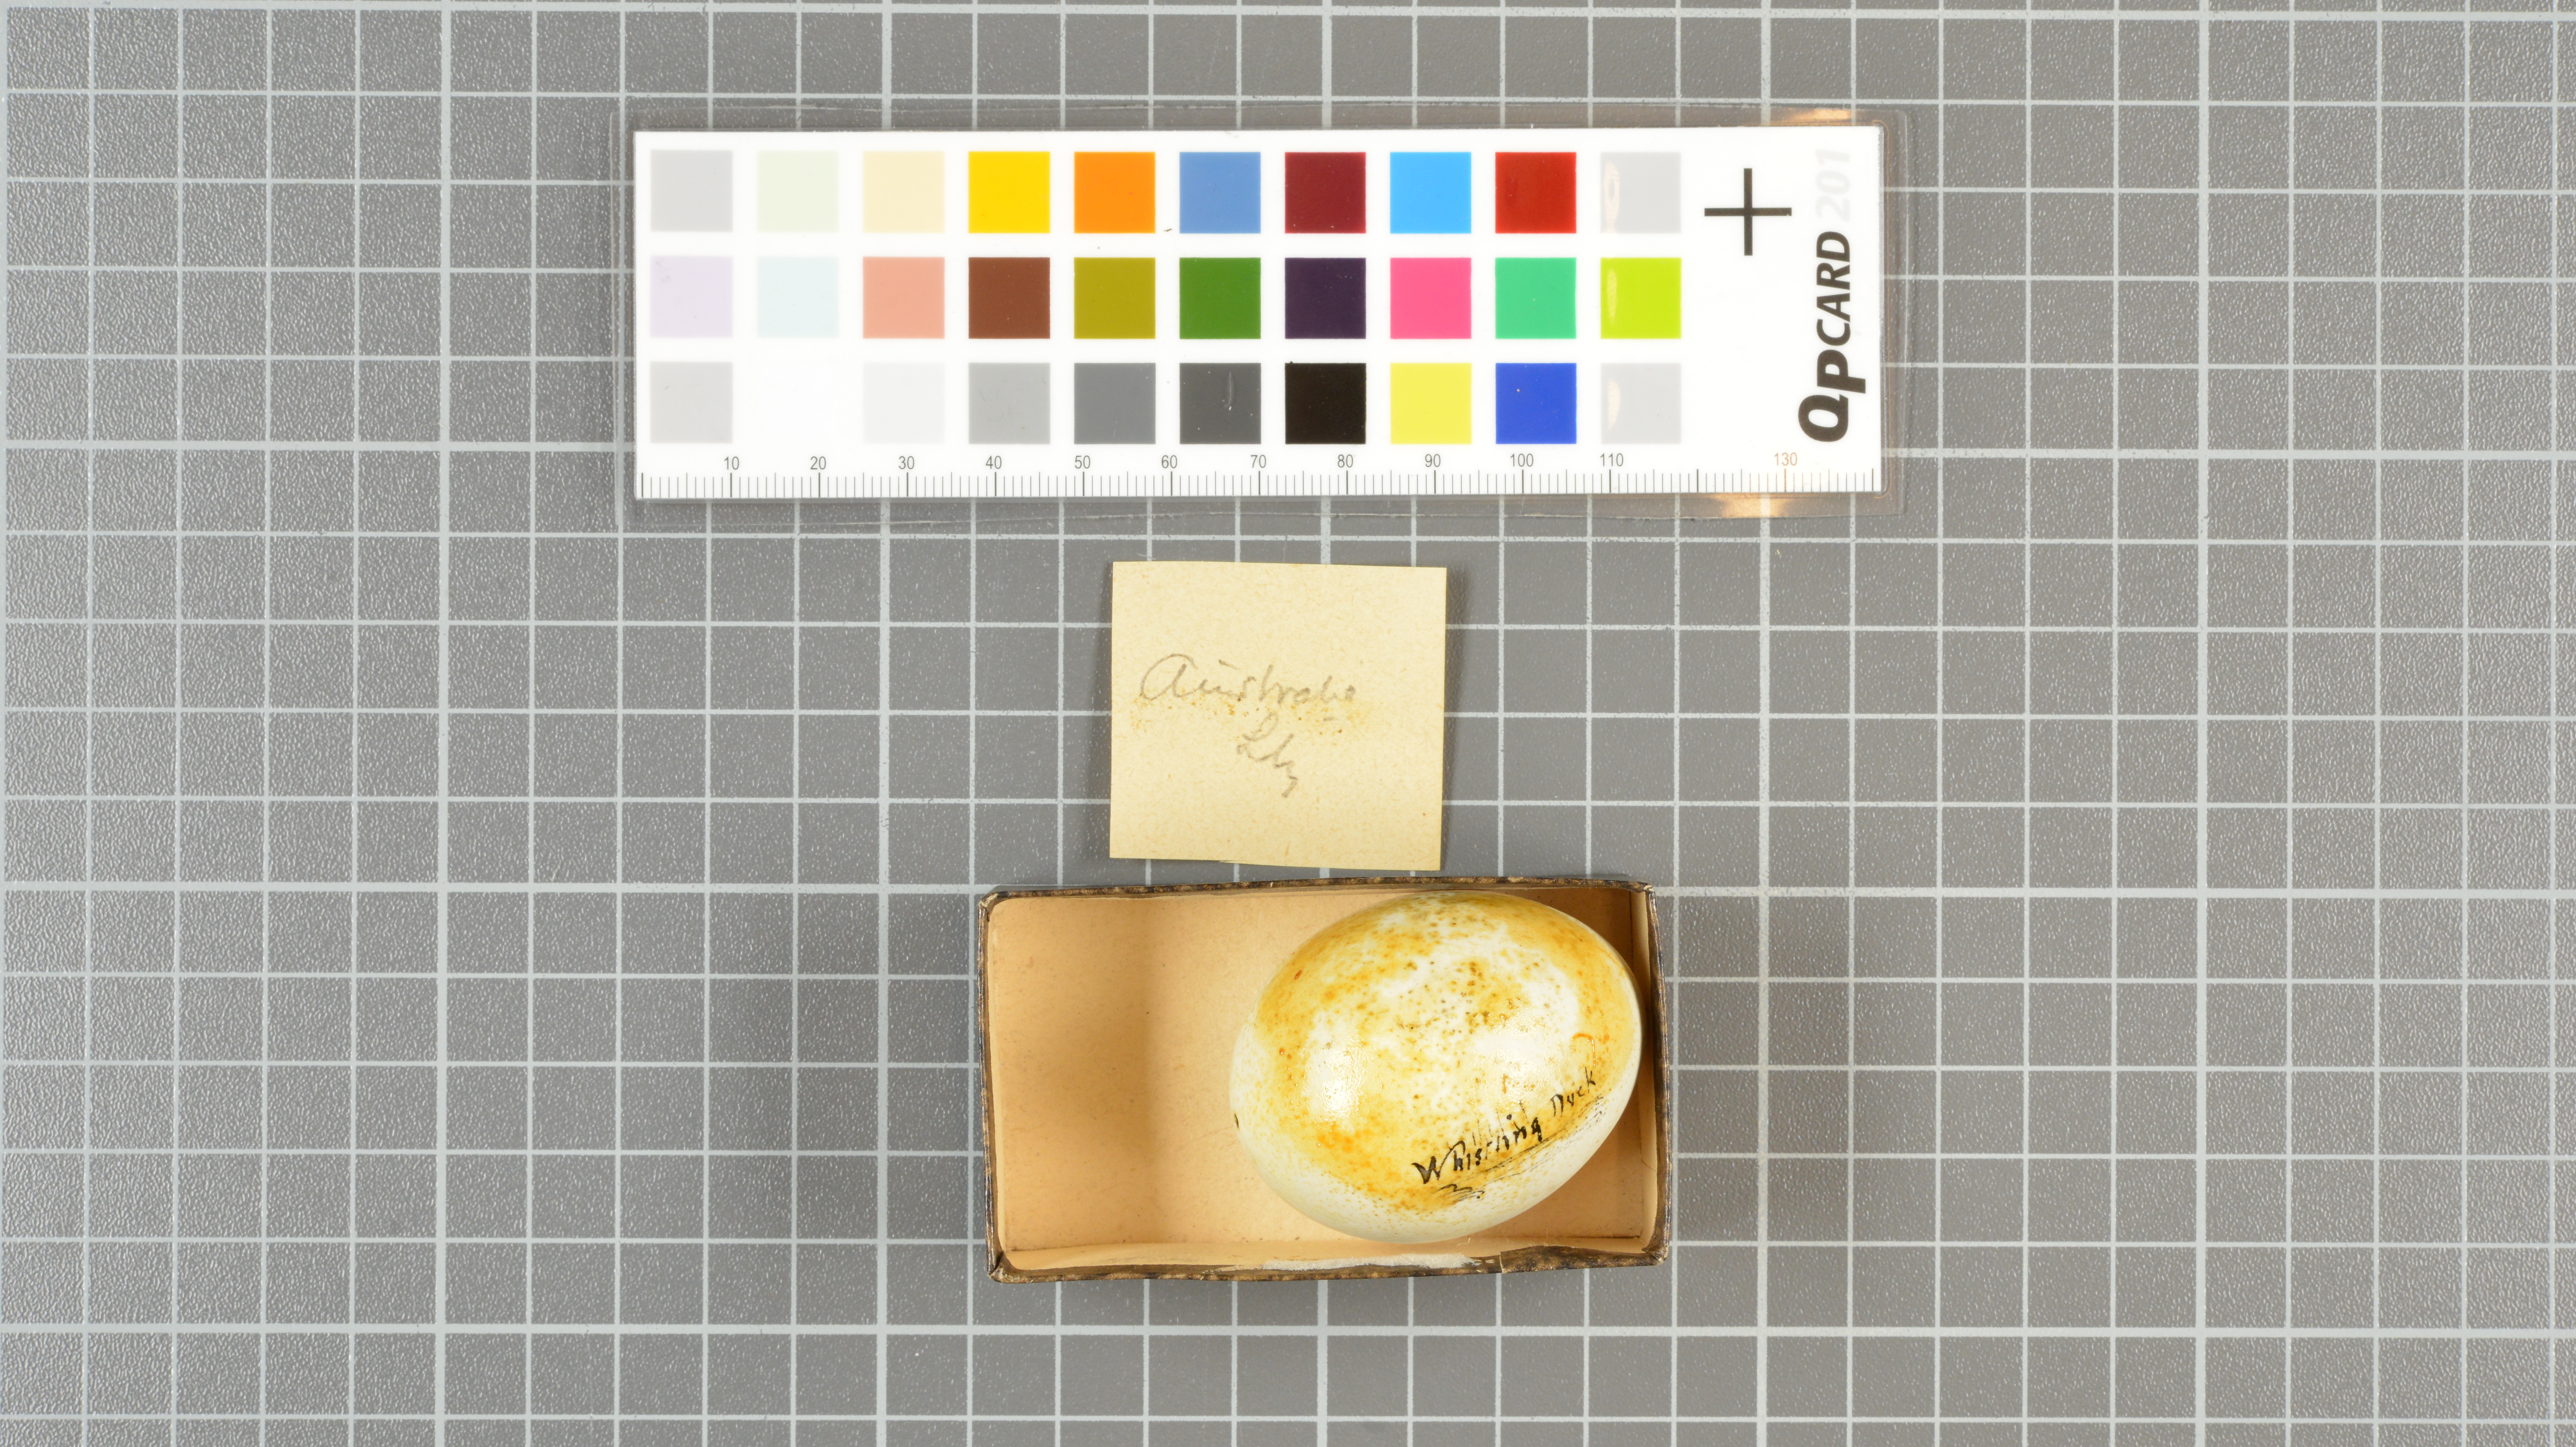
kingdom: Animalia
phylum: Chordata
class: Aves
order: Anseriformes
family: Anatidae
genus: Dendrocygna
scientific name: Dendrocygna
